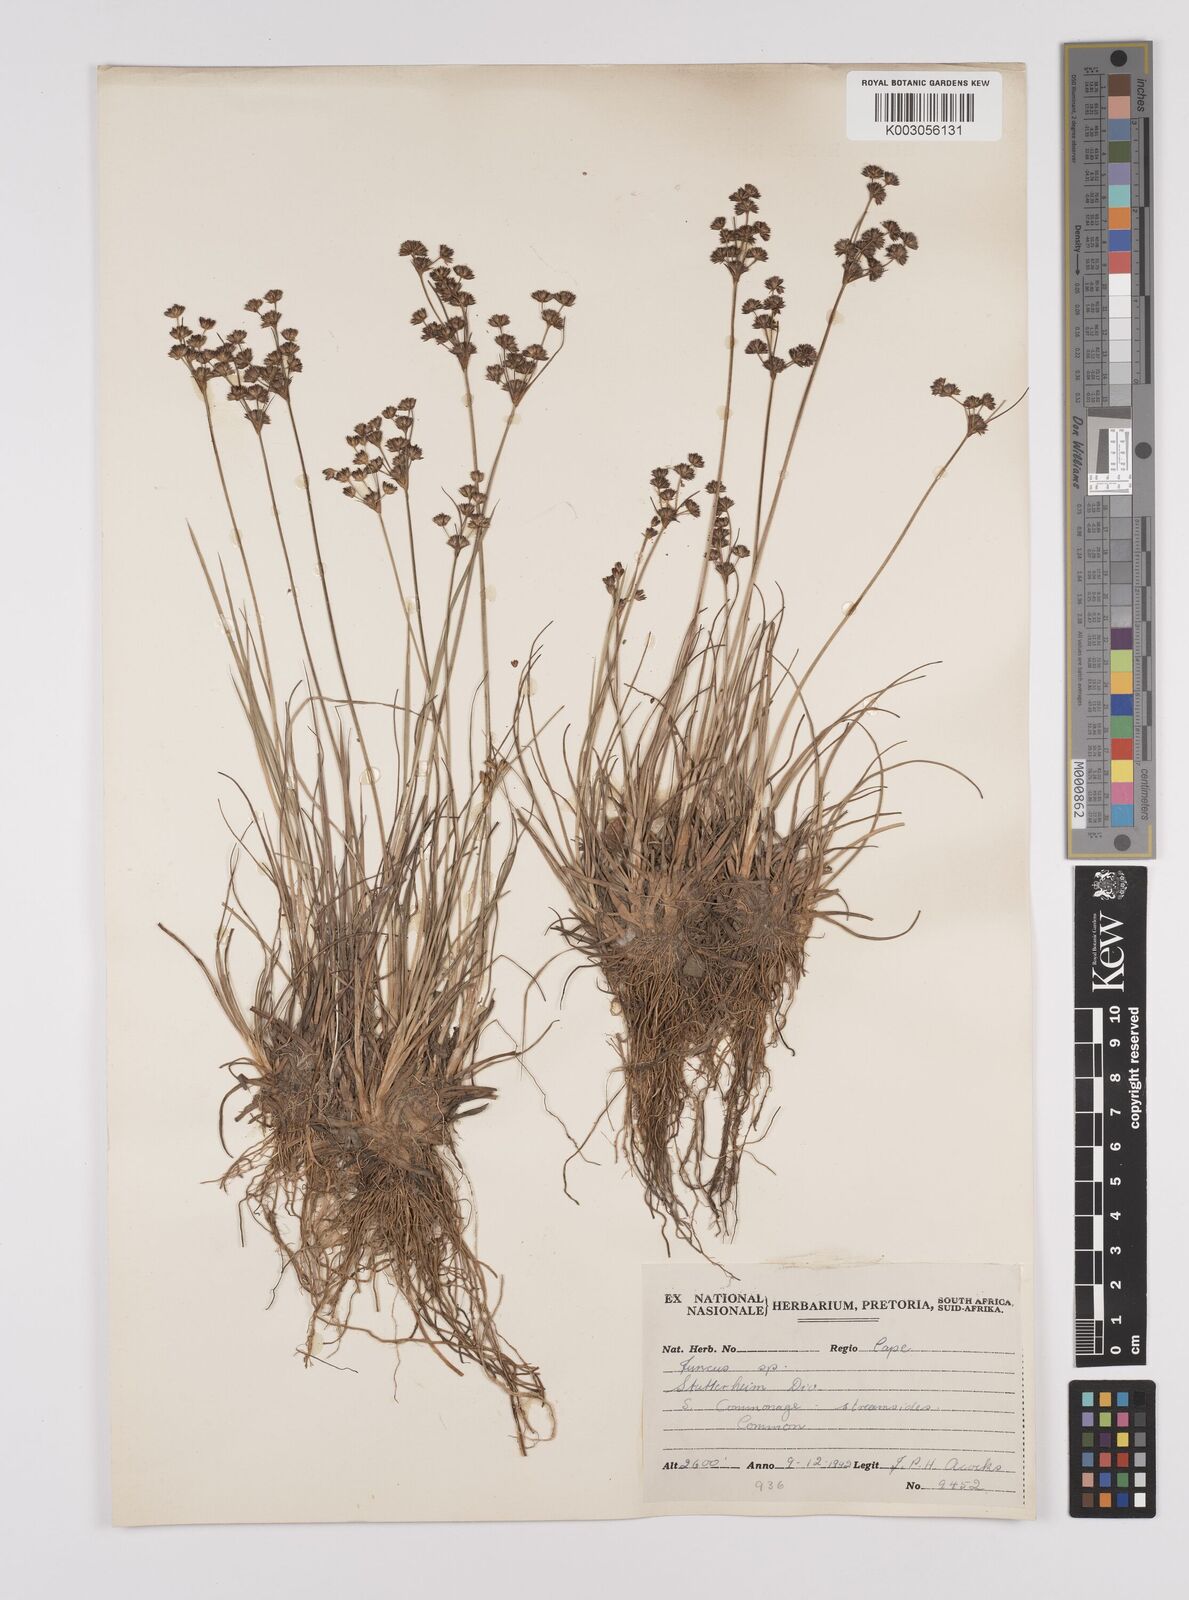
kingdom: Plantae
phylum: Tracheophyta
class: Liliopsida
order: Poales
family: Juncaceae
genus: Juncus
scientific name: Juncus
